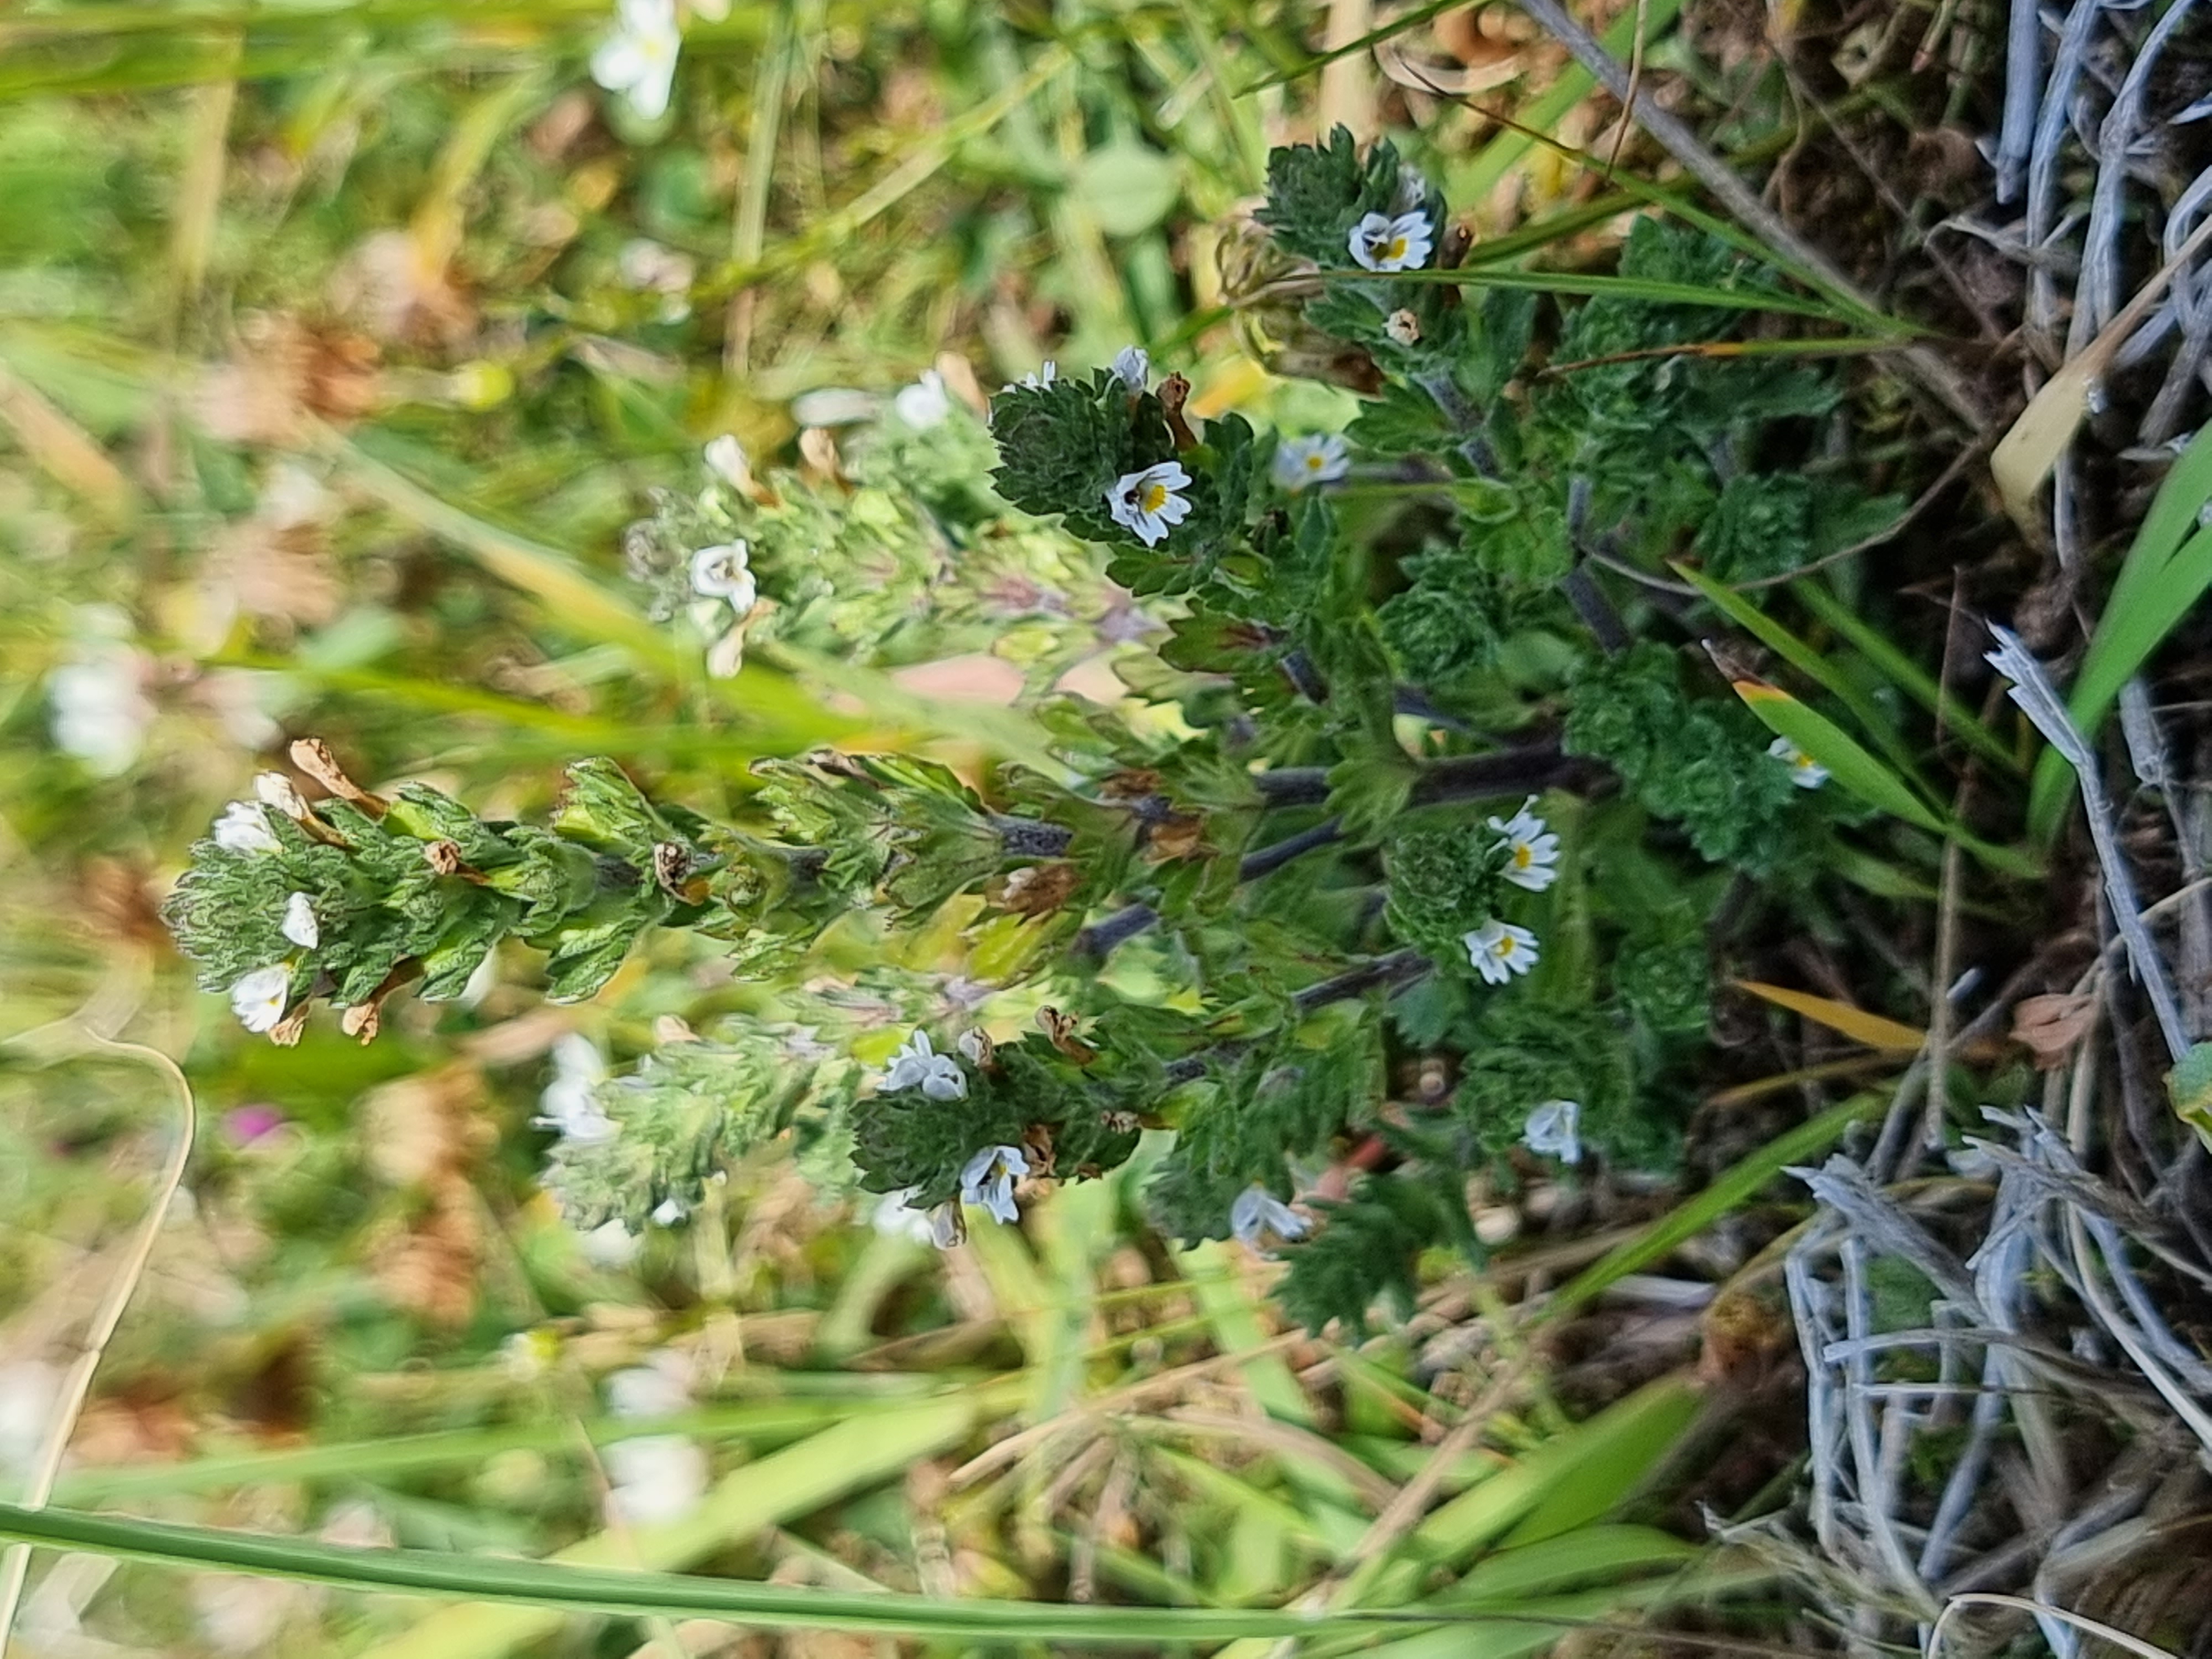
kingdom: Plantae
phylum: Tracheophyta
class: Magnoliopsida
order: Lamiales
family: Orobanchaceae
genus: Euphrasia
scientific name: Euphrasia nemorosa
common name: Kort øjentrøst
